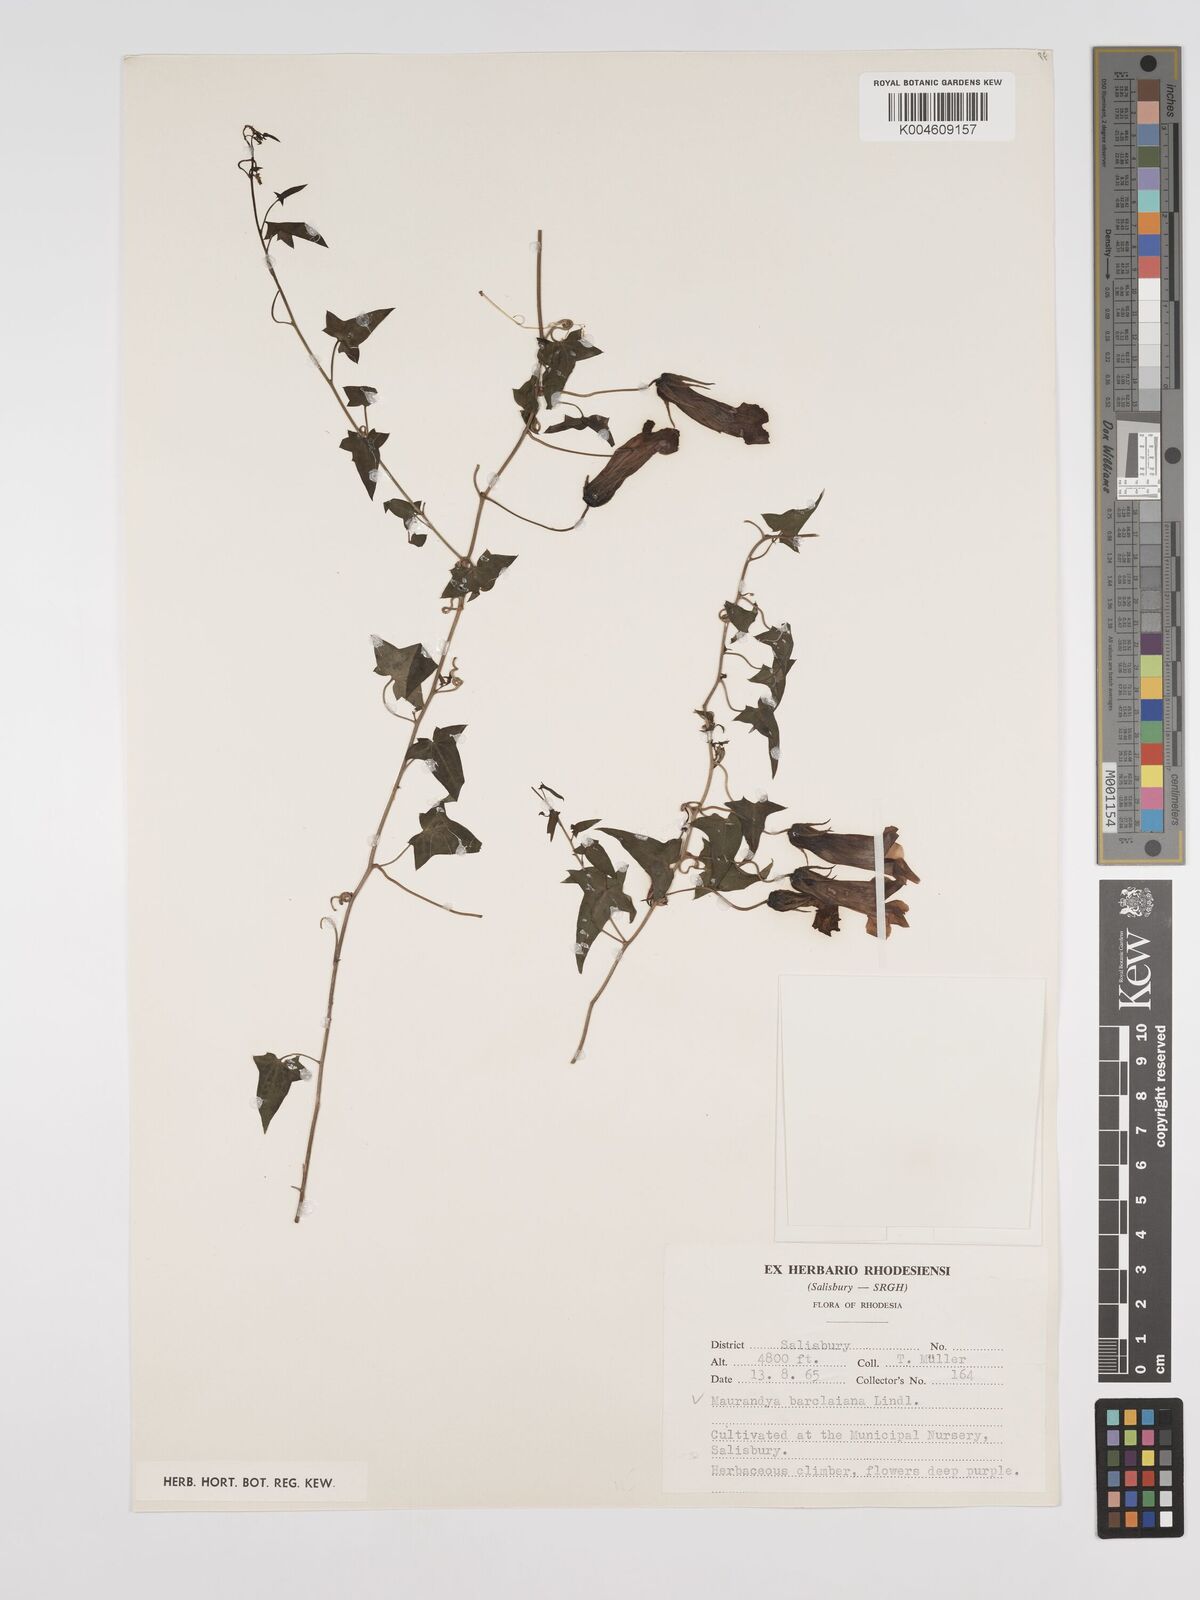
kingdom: Plantae
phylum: Tracheophyta
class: Magnoliopsida
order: Lamiales
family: Plantaginaceae
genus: Maurandya
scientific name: Maurandya barclayana
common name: Mexican viper
